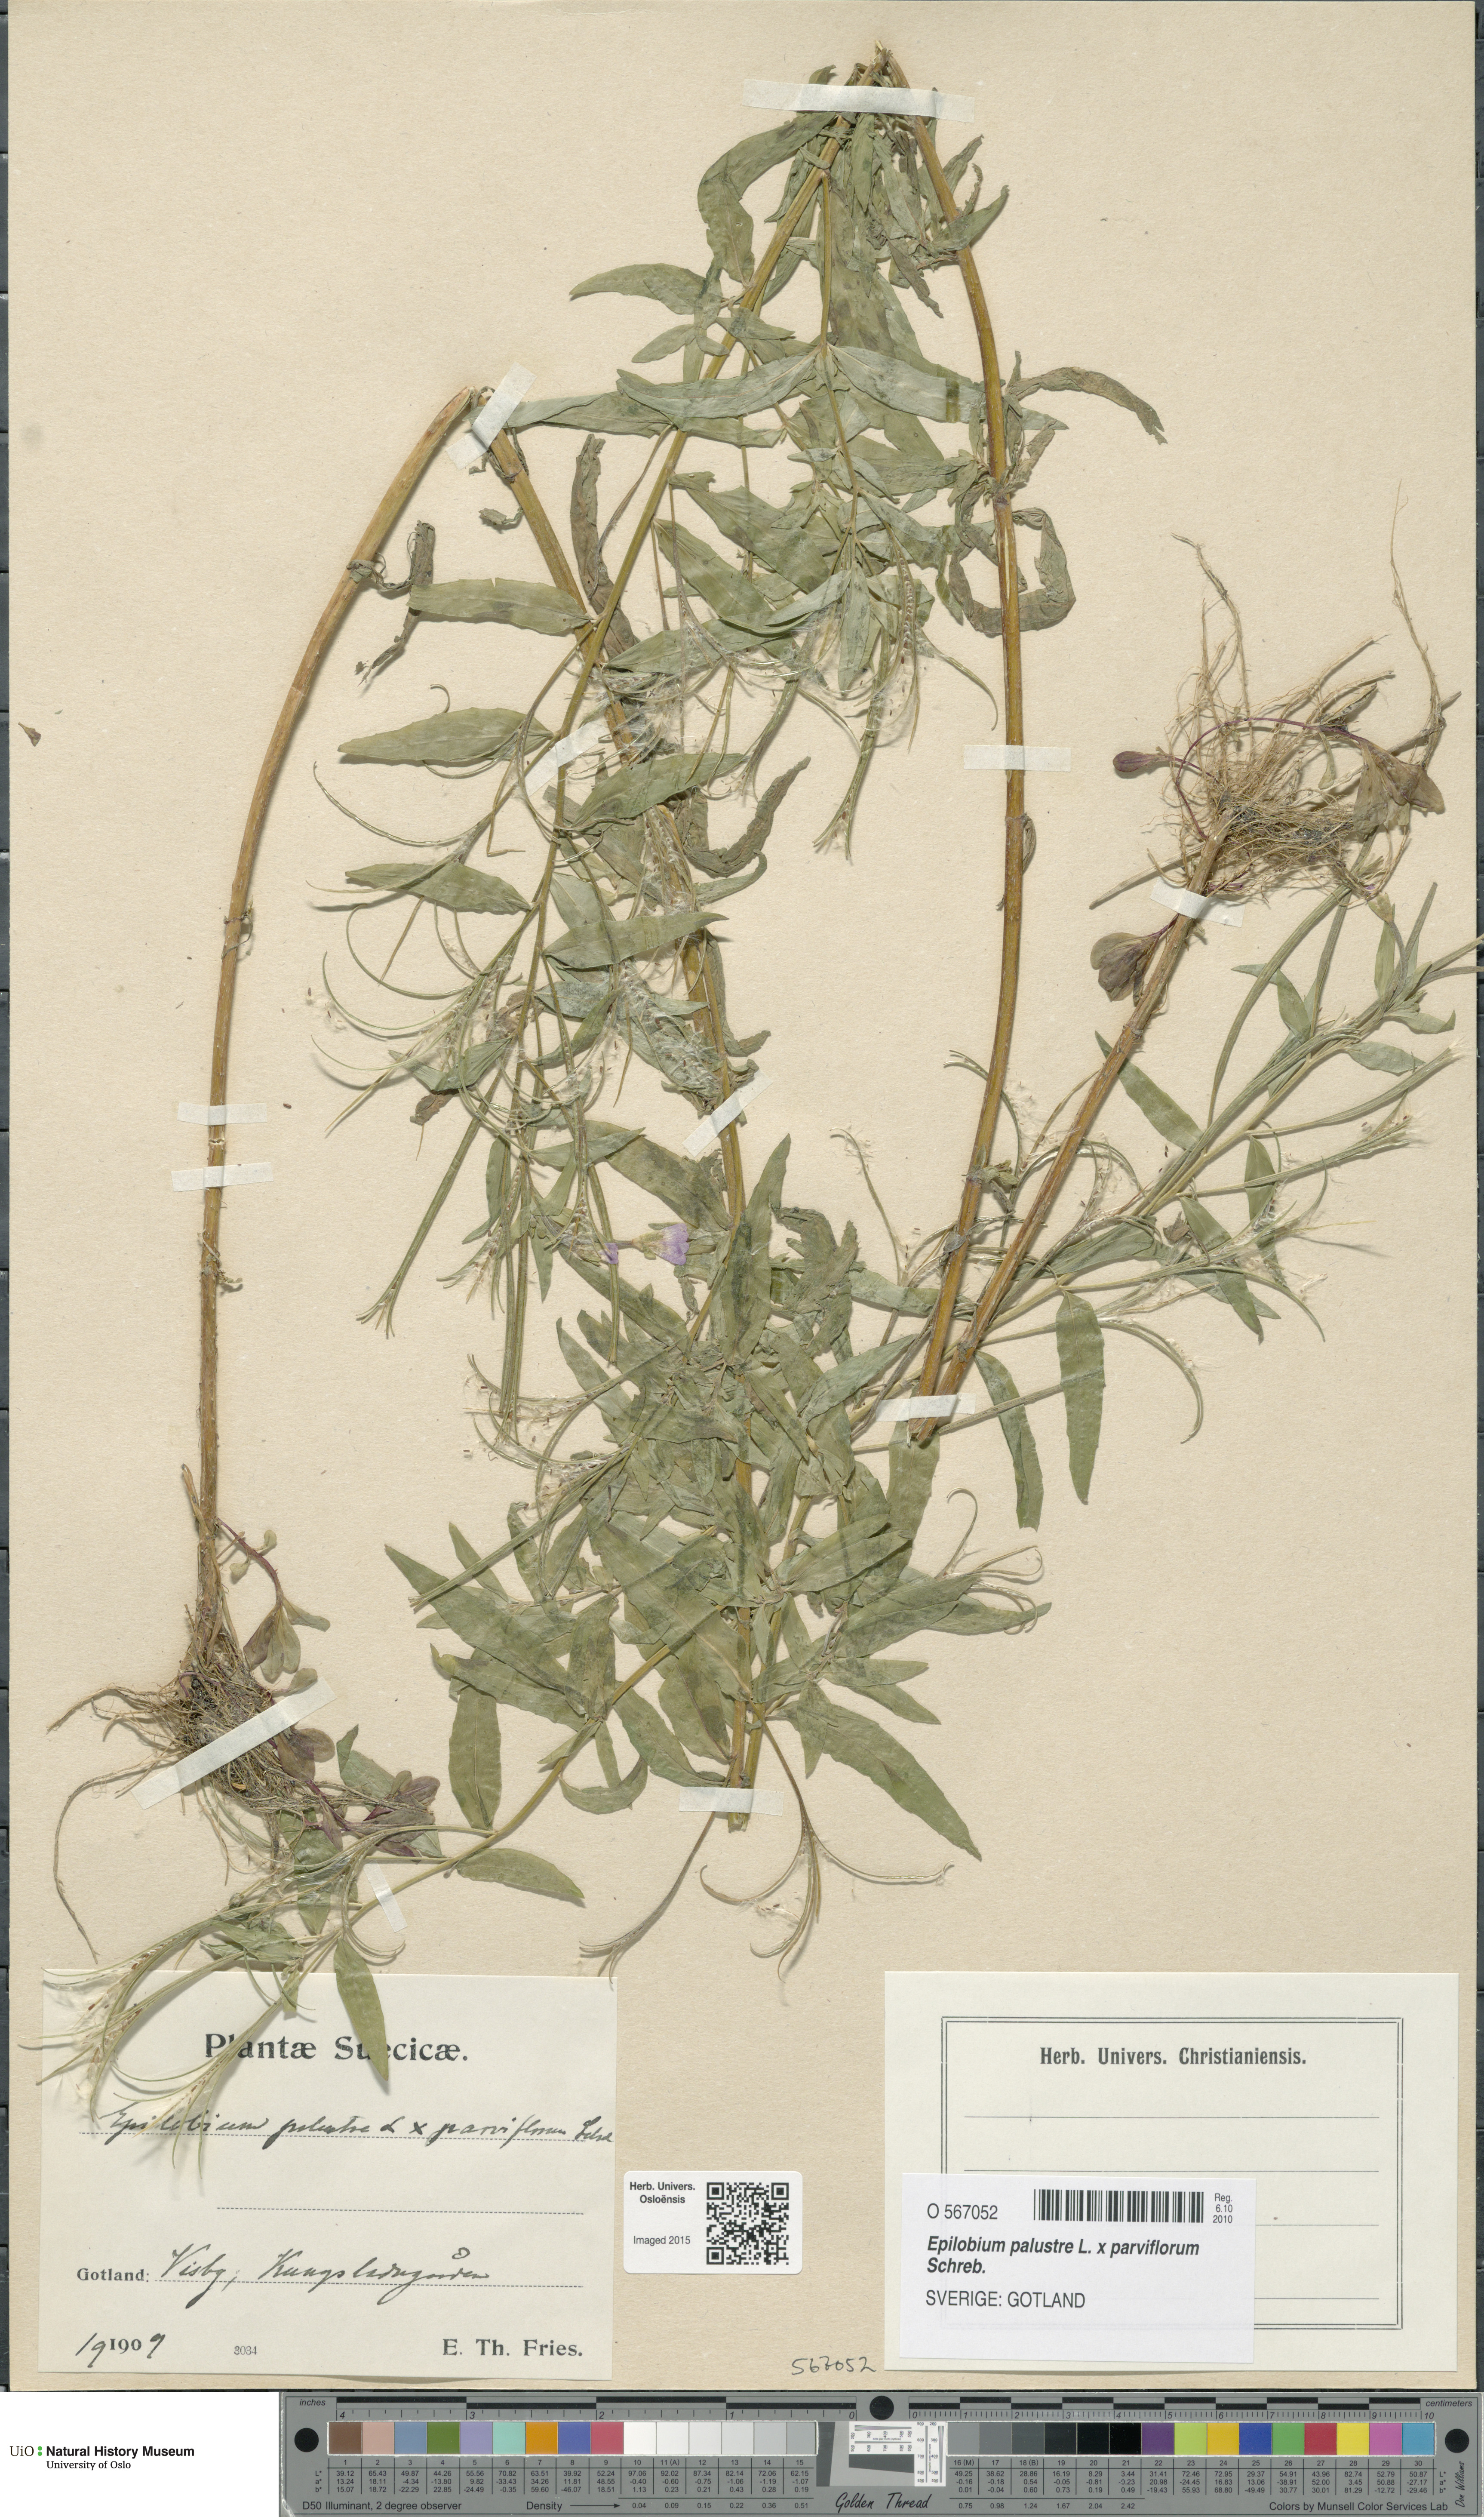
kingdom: Plantae
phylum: Tracheophyta
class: Magnoliopsida
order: Myrtales
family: Onagraceae
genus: Epilobium
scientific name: Epilobium
